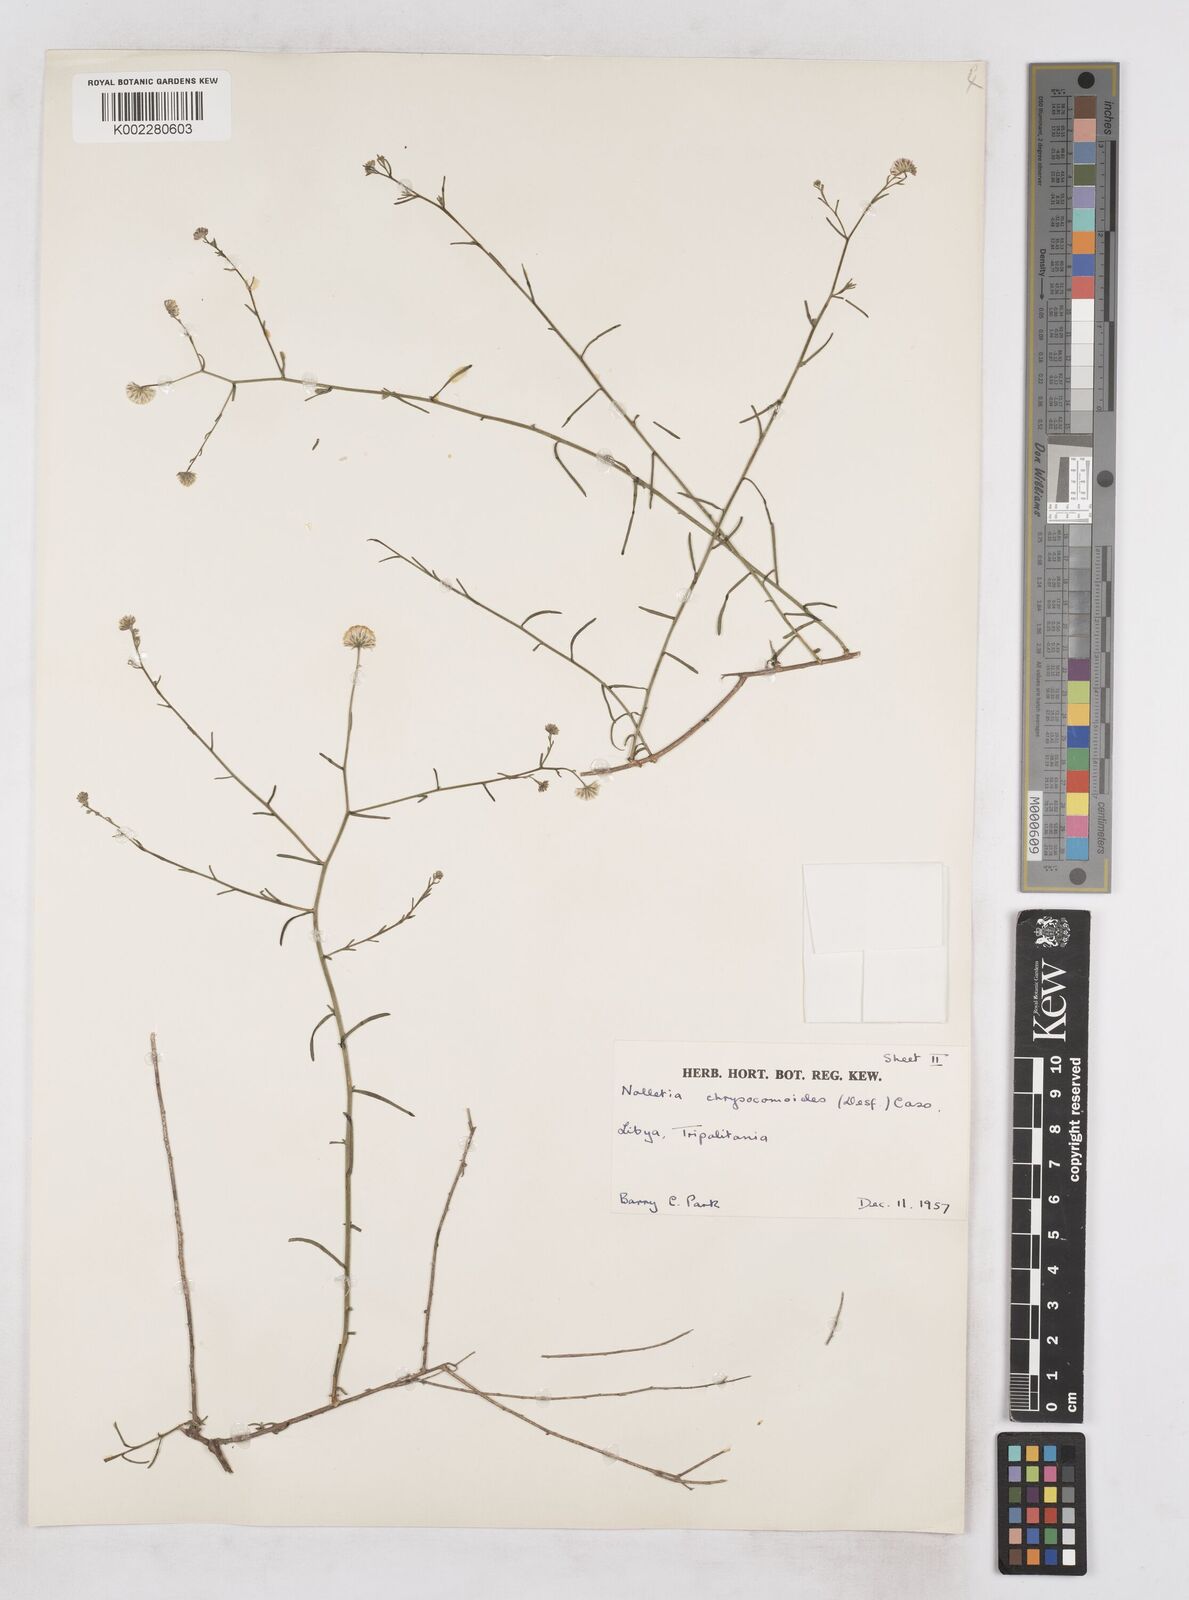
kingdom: Plantae
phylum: Tracheophyta
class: Magnoliopsida
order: Asterales
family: Asteraceae
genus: Nolletia
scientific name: Nolletia chrysocomoides
